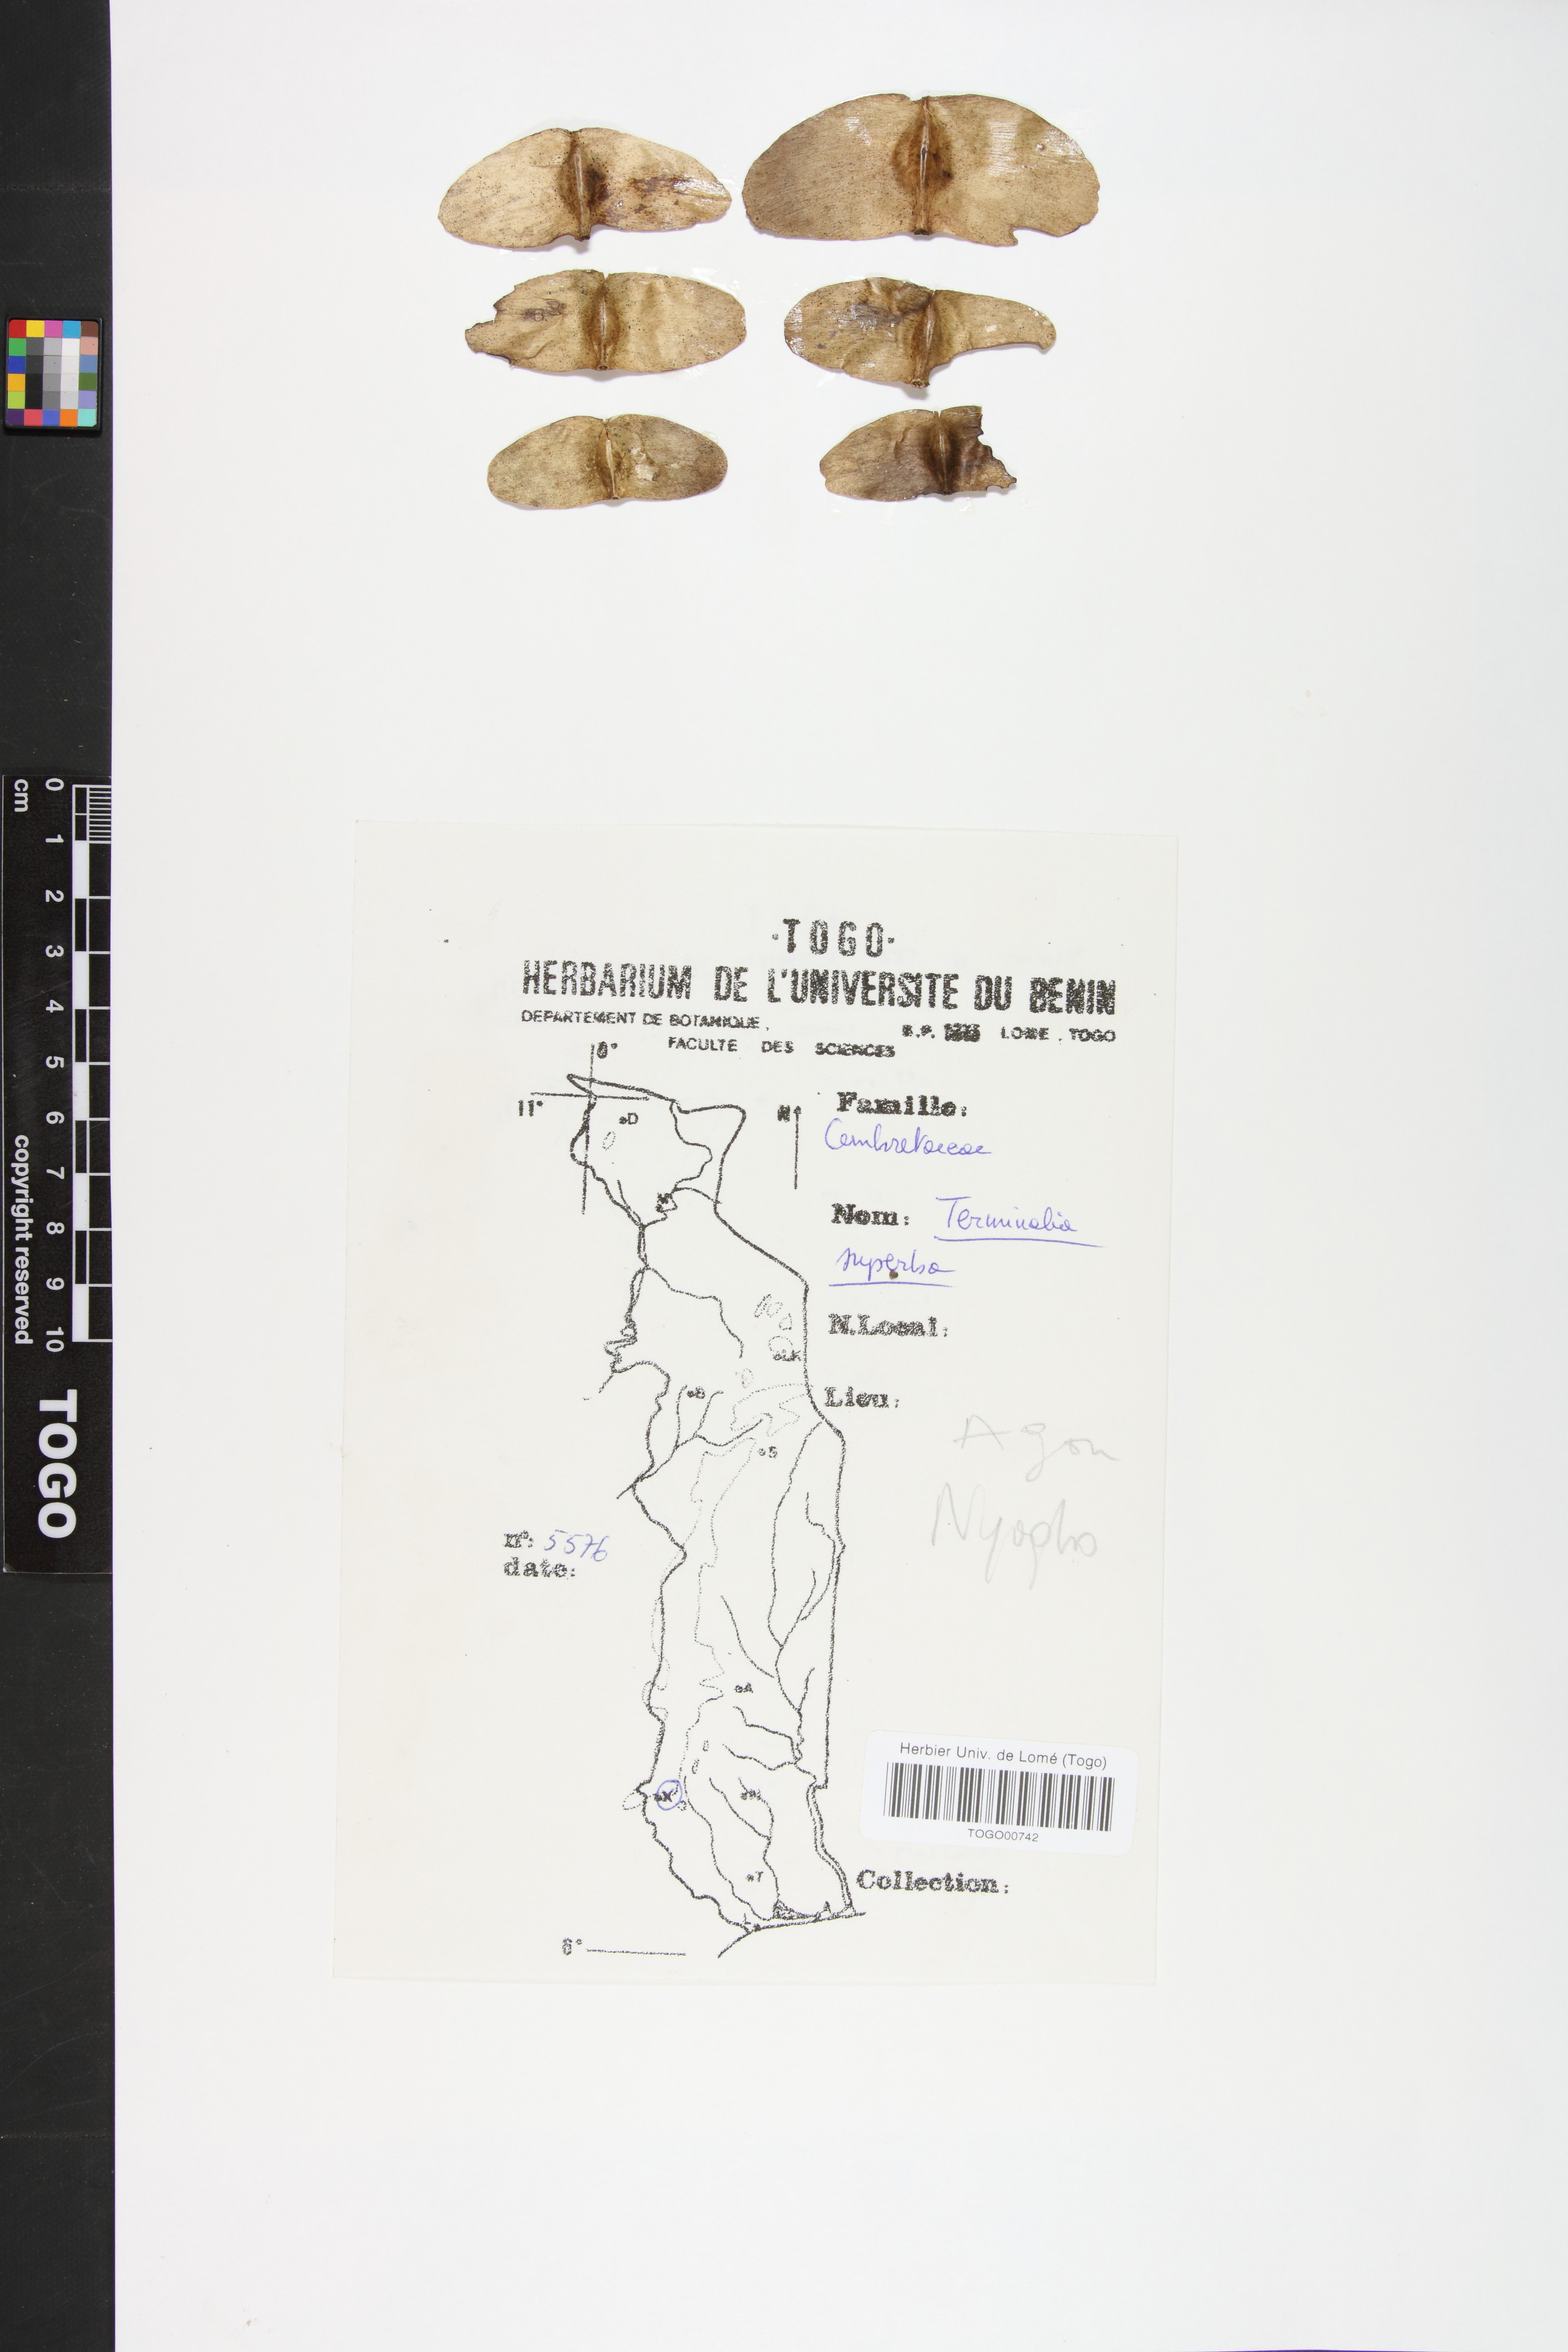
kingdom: Plantae
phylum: Tracheophyta
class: Magnoliopsida
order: Myrtales
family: Combretaceae
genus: Terminalia
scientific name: Terminalia superba
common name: White afara
